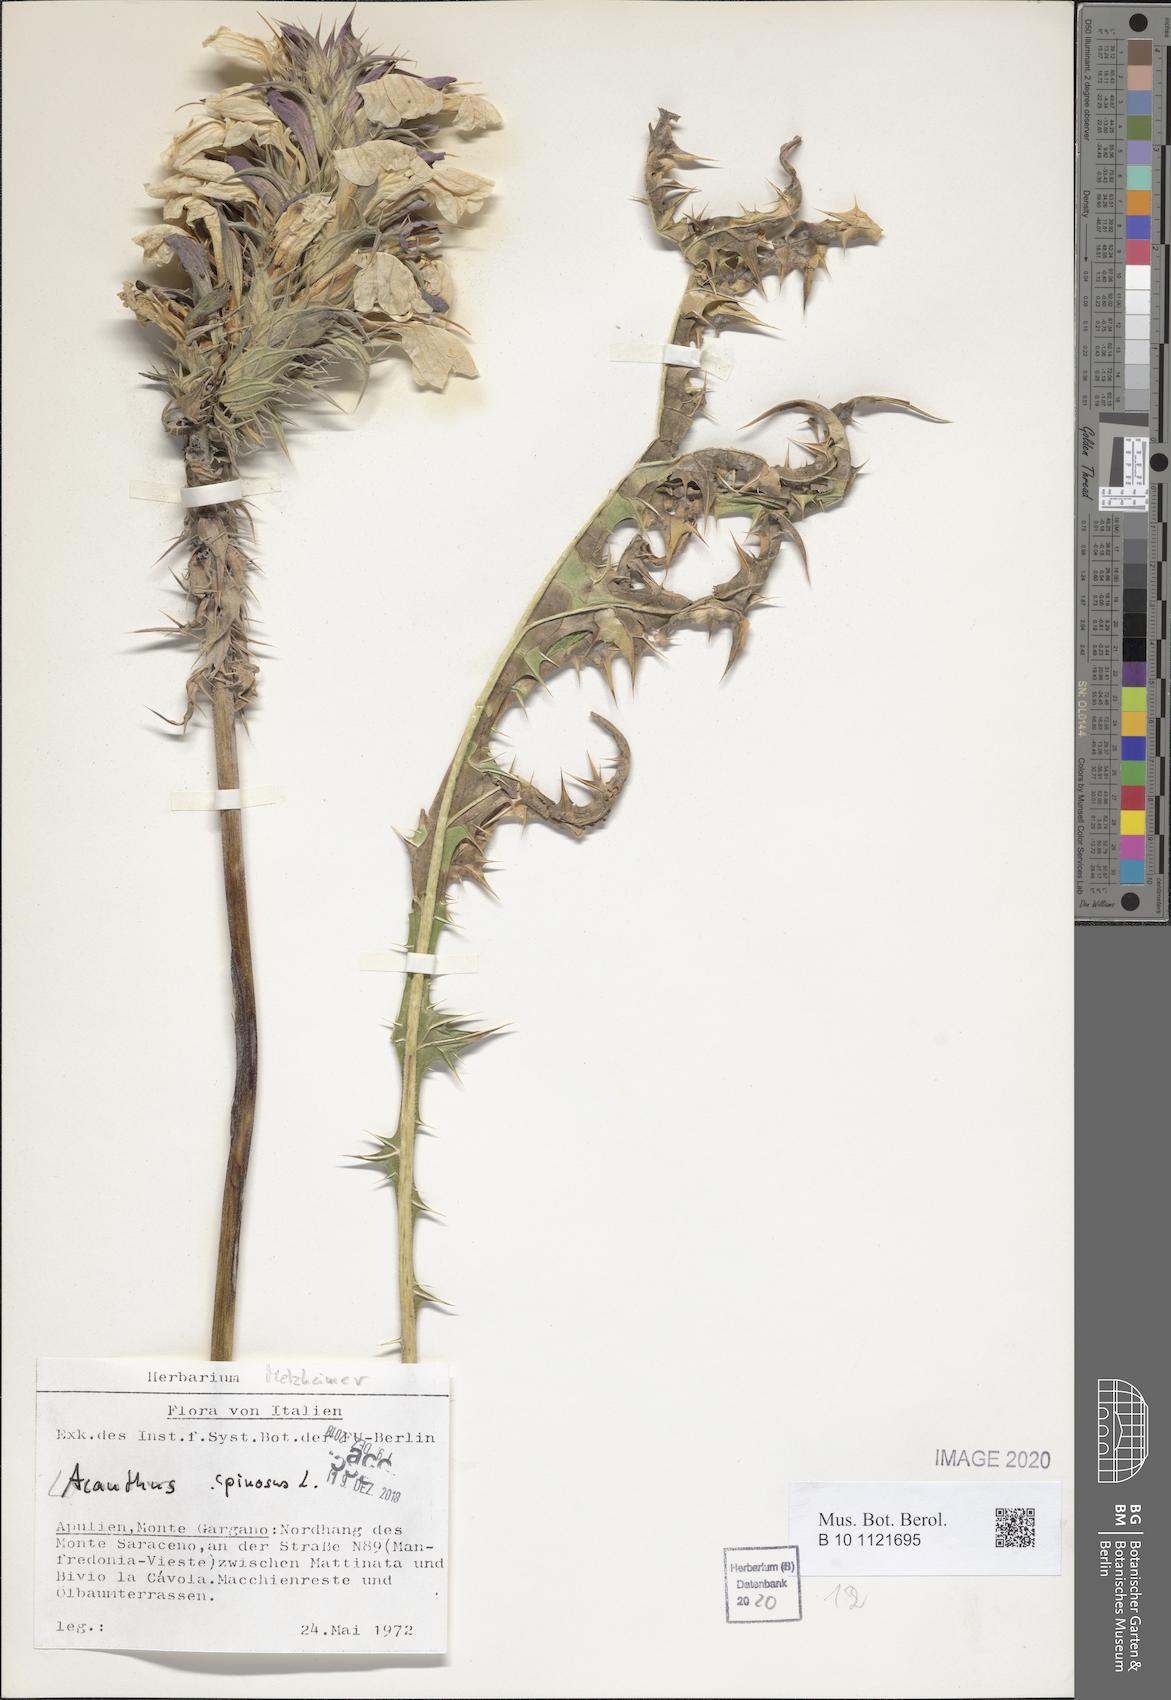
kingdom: Plantae
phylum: Tracheophyta
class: Magnoliopsida
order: Lamiales
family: Acanthaceae
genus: Acanthus
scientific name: Acanthus spinosus
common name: Spiny bear's-breech
